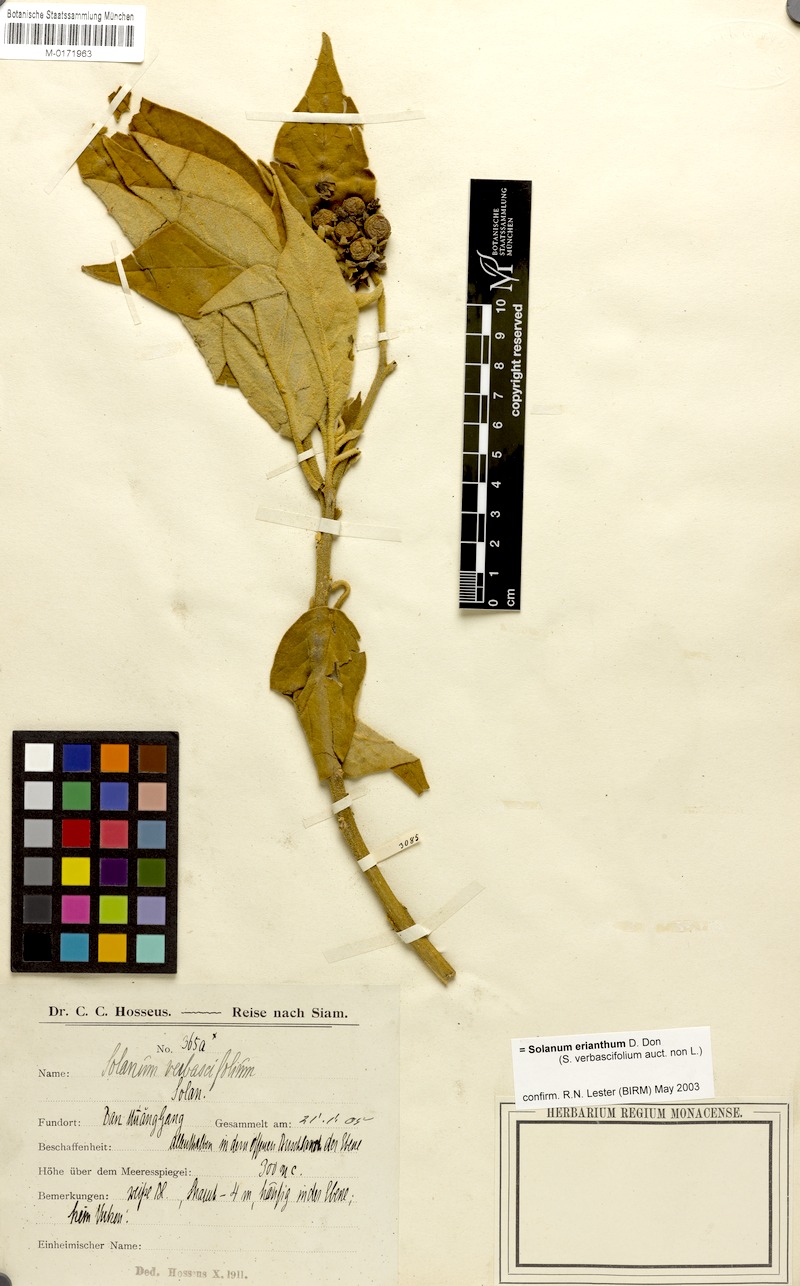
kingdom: Plantae
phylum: Tracheophyta
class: Magnoliopsida
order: Solanales
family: Solanaceae
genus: Solanum
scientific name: Solanum erianthum
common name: Tobacco-tree
